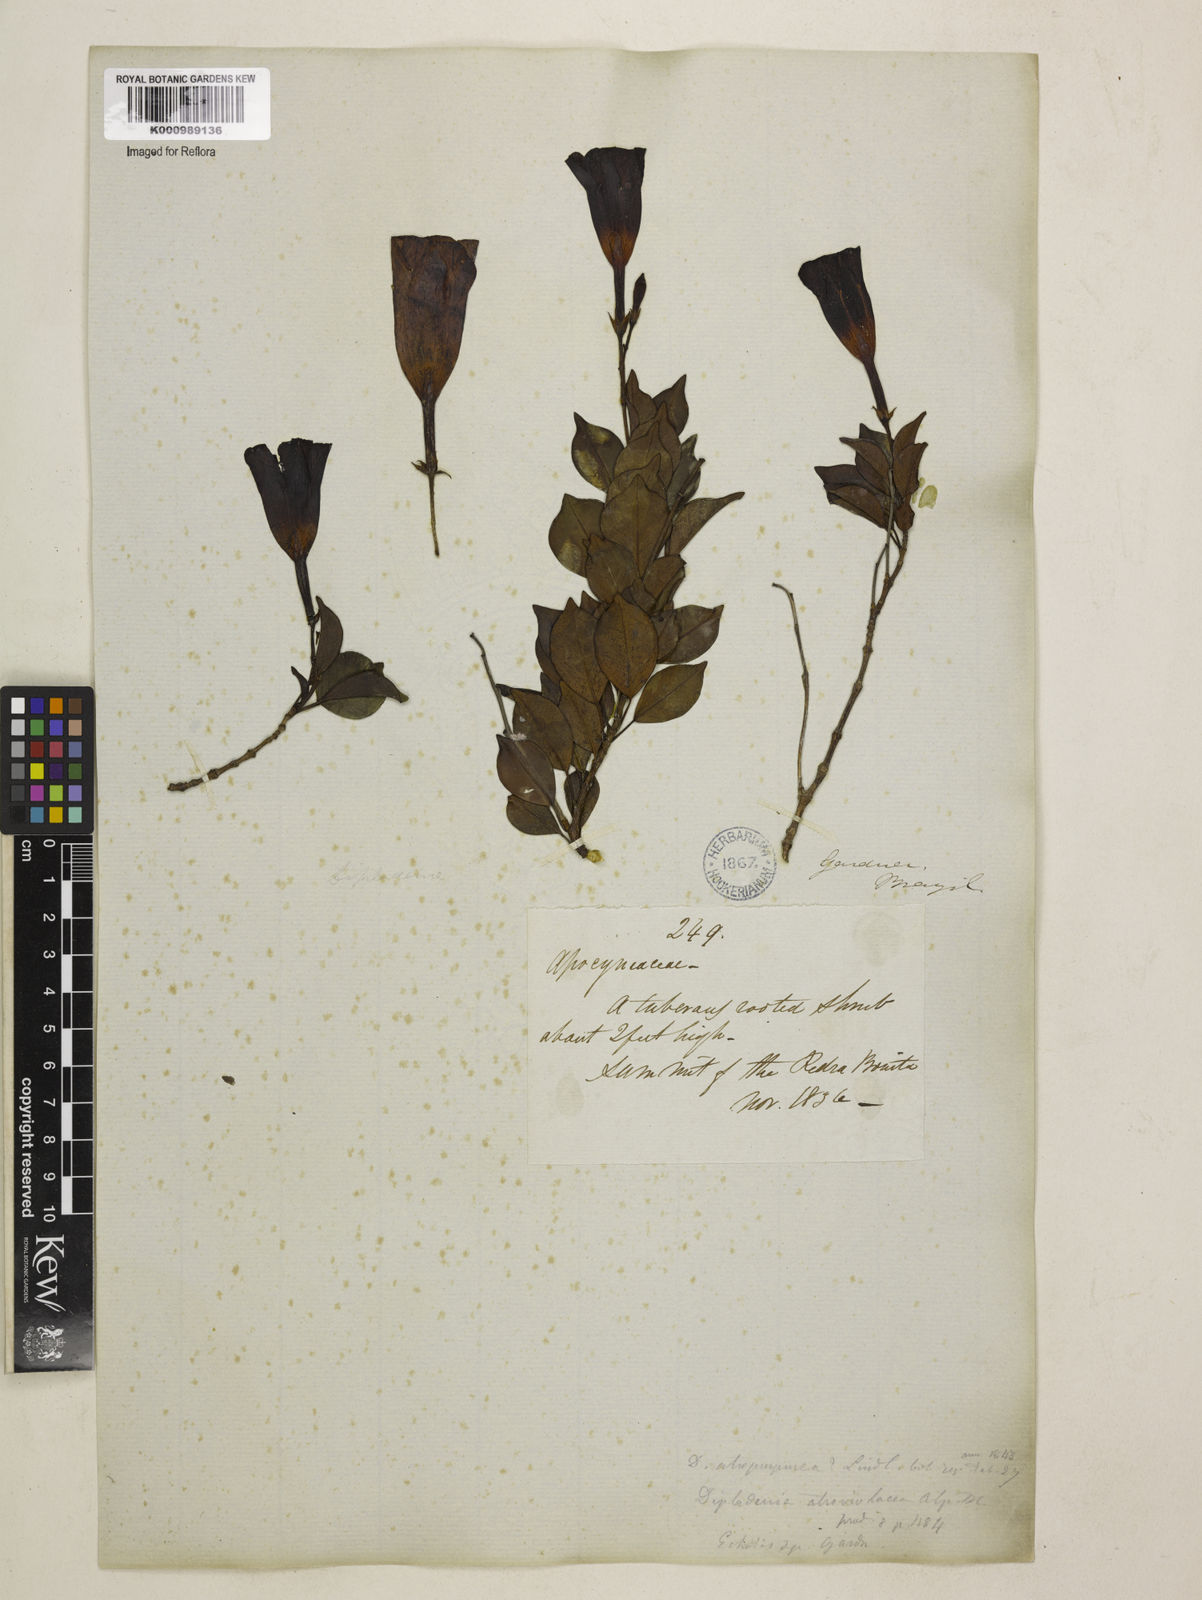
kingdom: Plantae
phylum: Tracheophyta
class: Magnoliopsida
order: Gentianales
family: Apocynaceae
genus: Mandevilla
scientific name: Mandevilla atroviolacea
